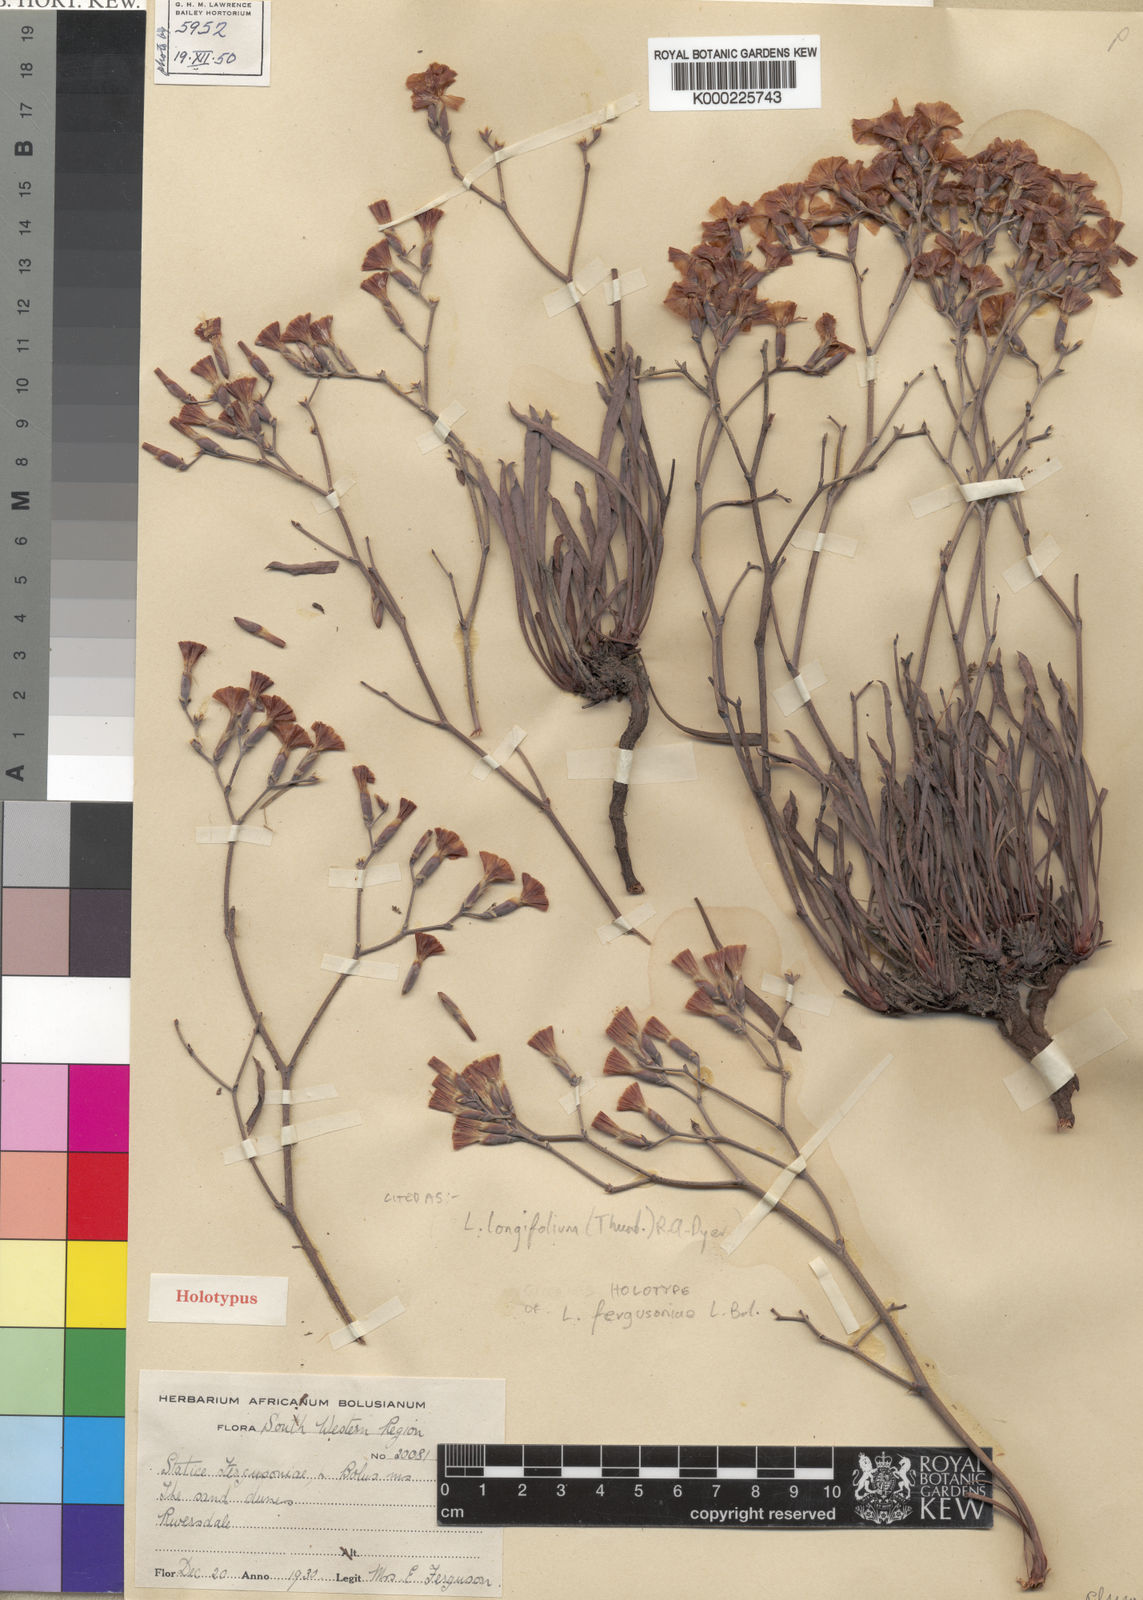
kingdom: Plantae
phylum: Tracheophyta
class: Magnoliopsida
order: Caryophyllales
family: Plumbaginaceae
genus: Limonium
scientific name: Limonium longifolium
